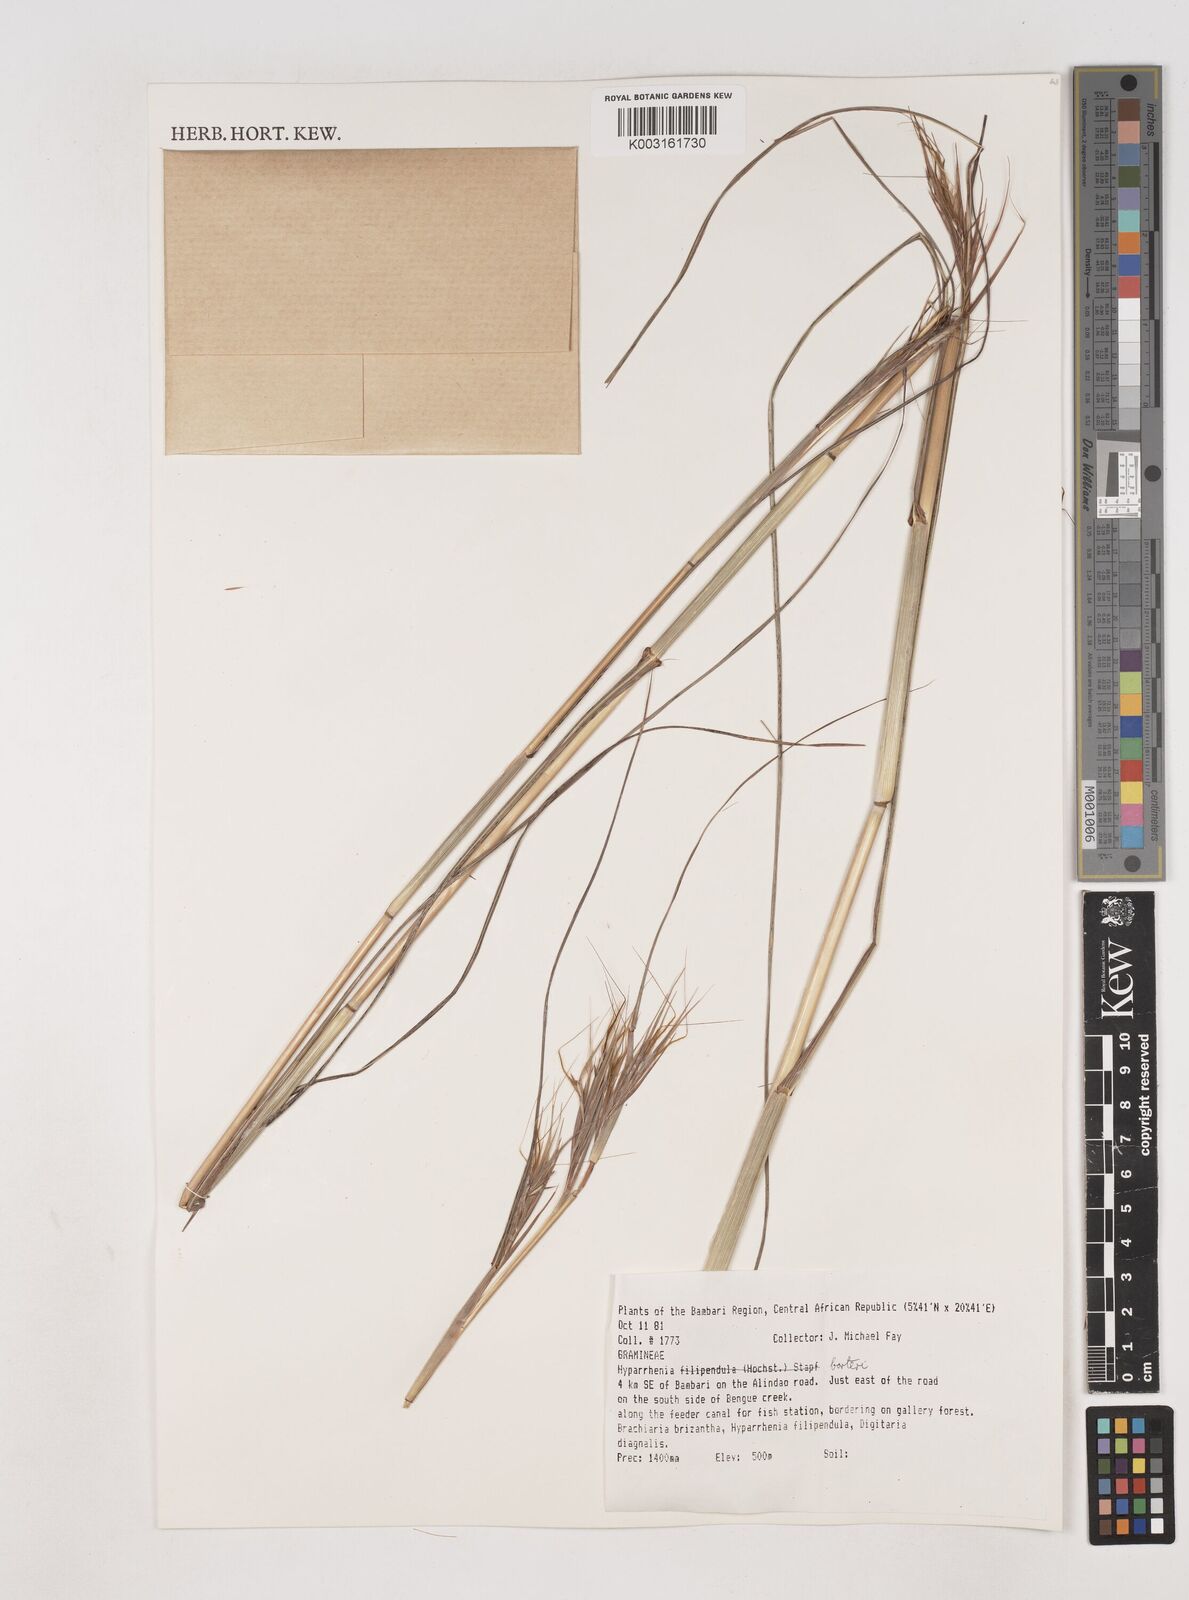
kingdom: Plantae
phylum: Tracheophyta
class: Liliopsida
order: Poales
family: Poaceae
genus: Hyparrhenia
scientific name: Hyparrhenia barteri
